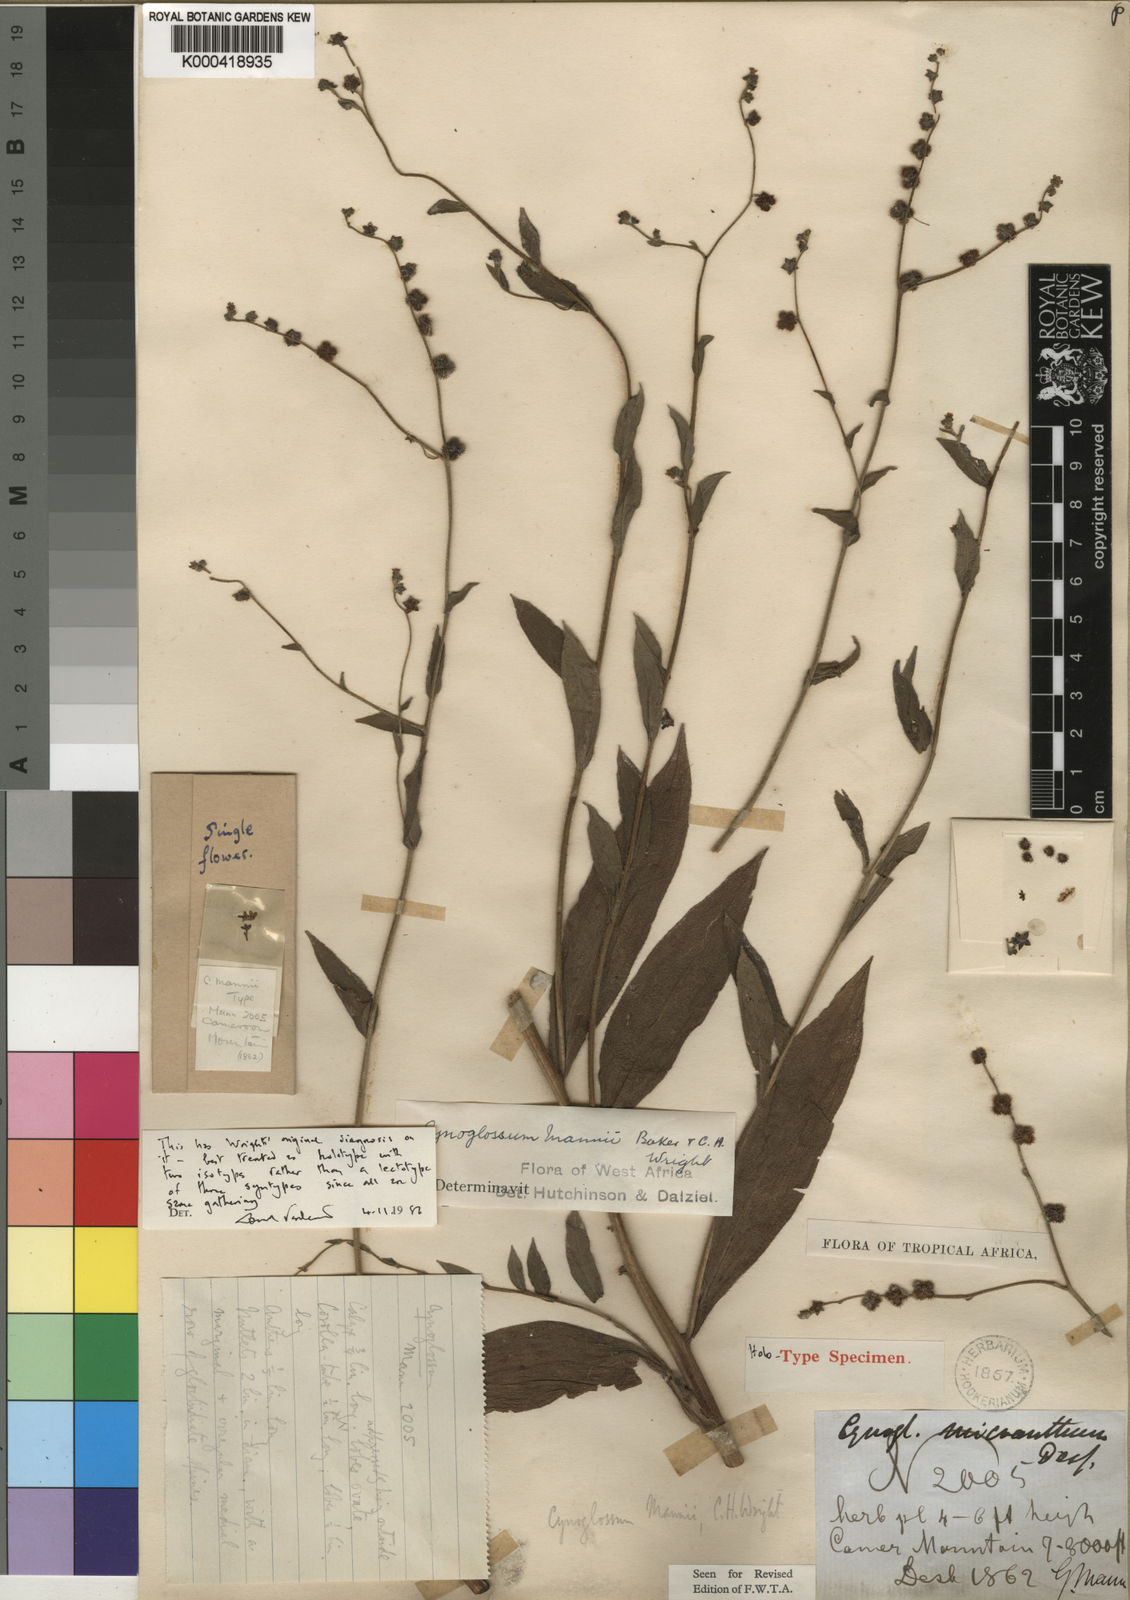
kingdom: Plantae
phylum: Tracheophyta
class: Magnoliopsida
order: Boraginales
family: Boraginaceae
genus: Cynoglossum
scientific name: Cynoglossum amplifolium
